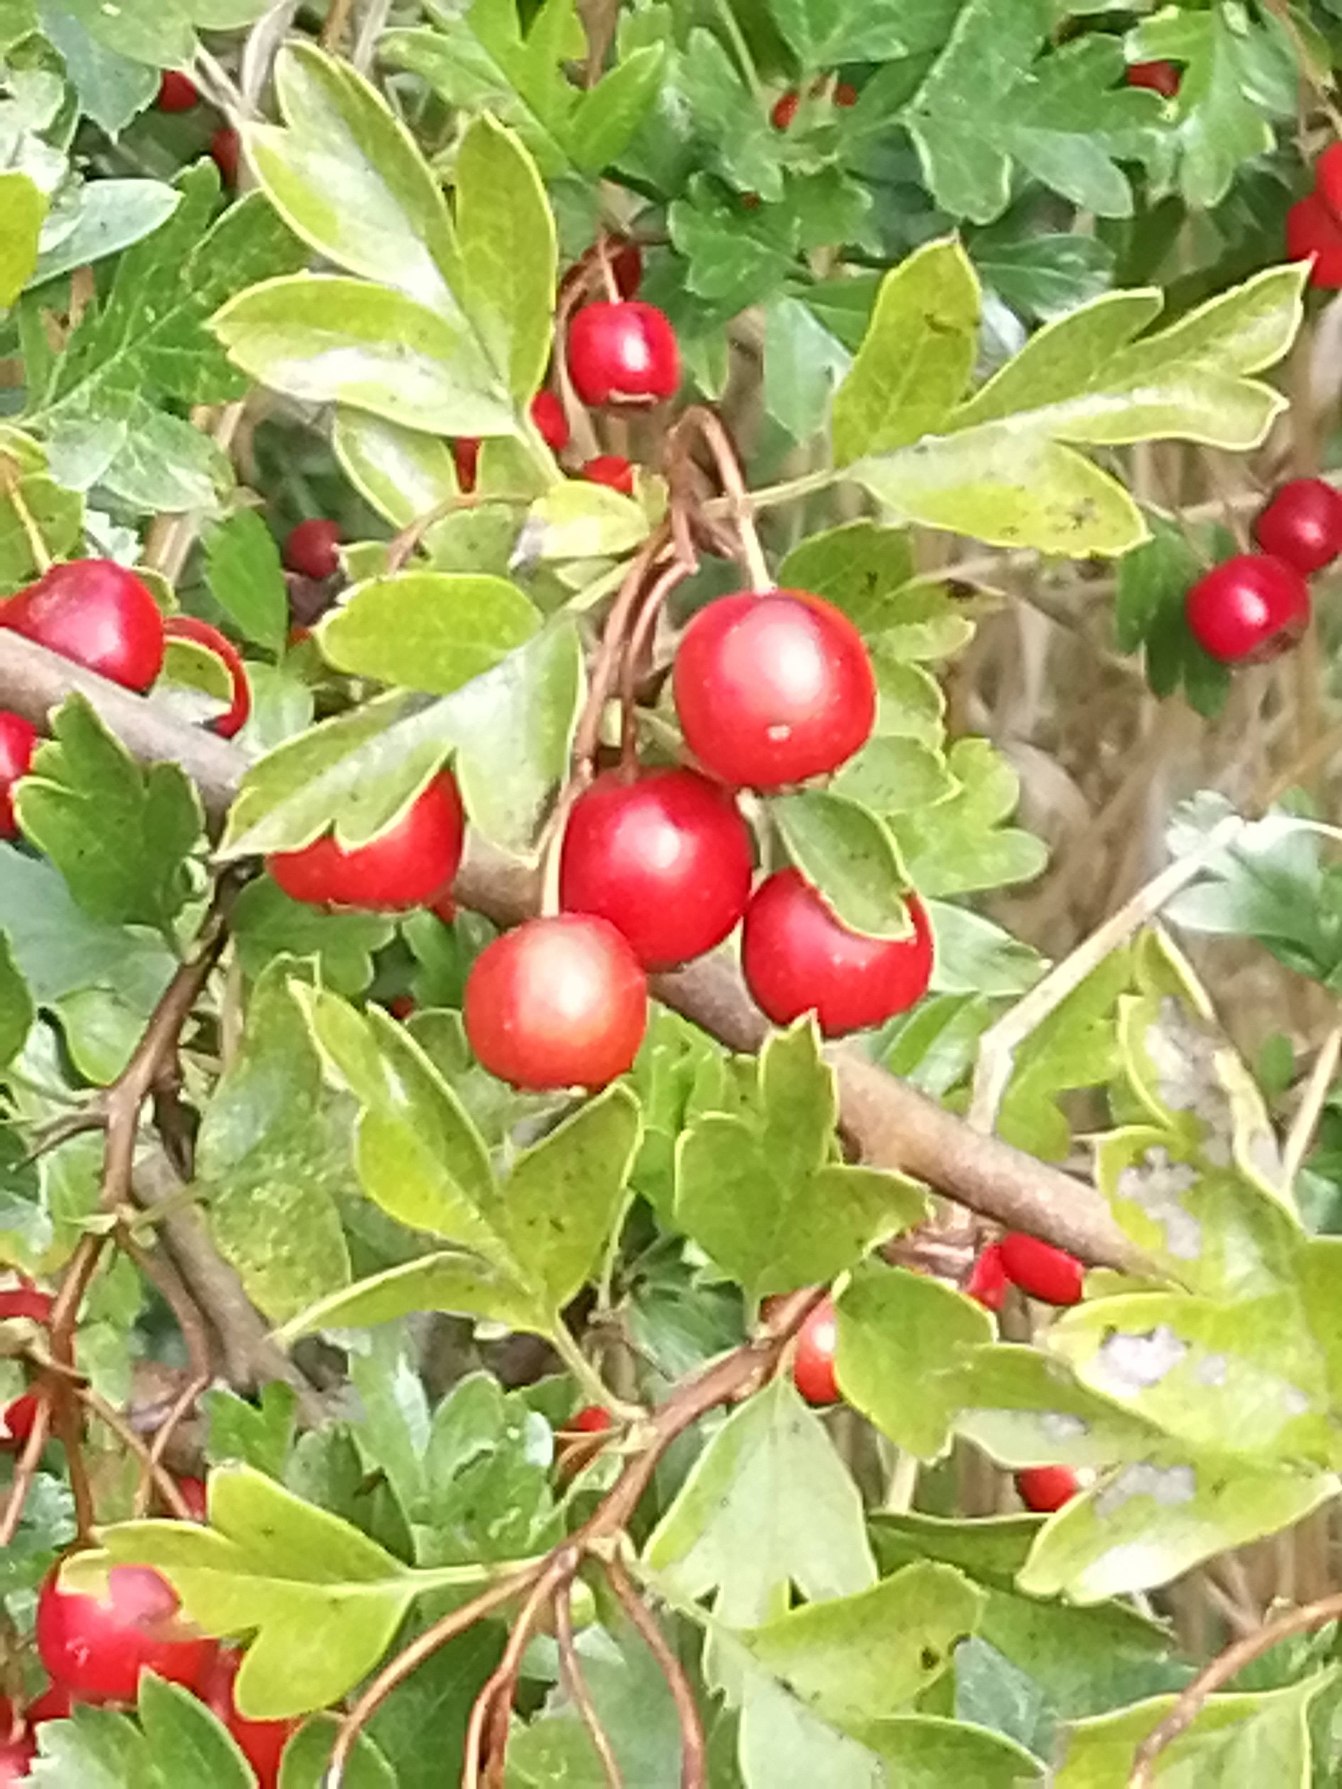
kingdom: Plantae
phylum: Tracheophyta
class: Magnoliopsida
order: Rosales
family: Rosaceae
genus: Crataegus
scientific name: Crataegus
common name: Hvidtjørnslægten
